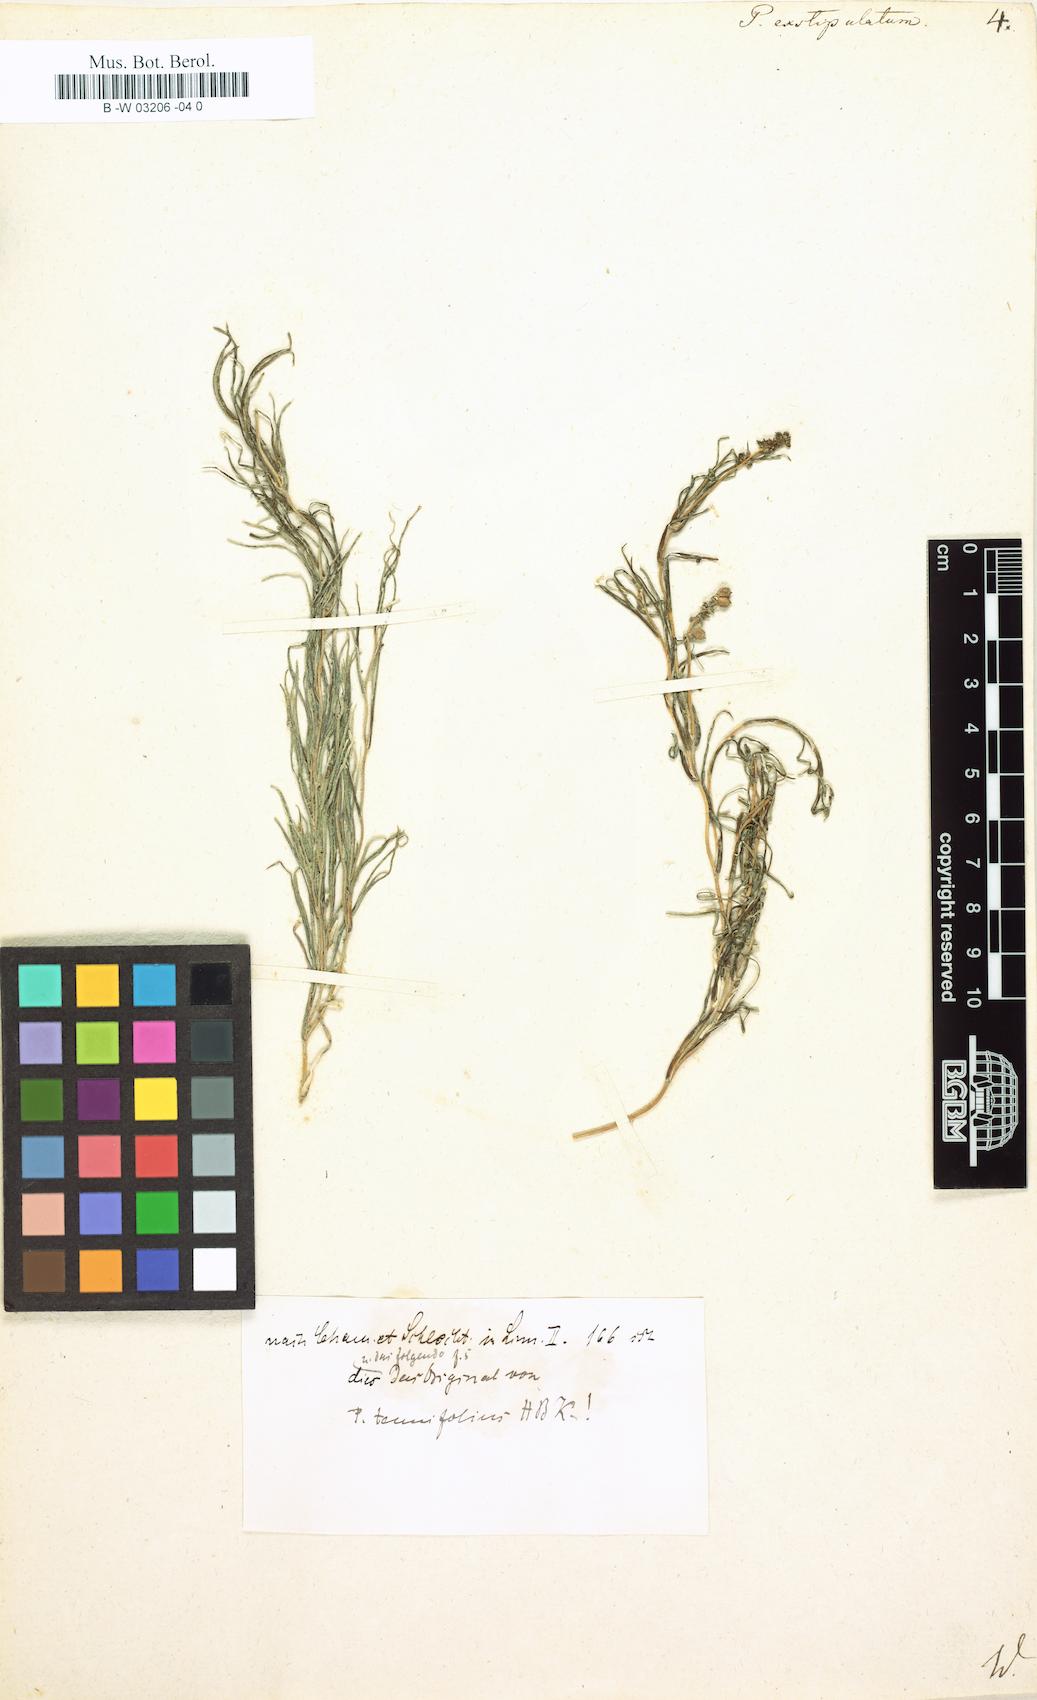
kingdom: Plantae
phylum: Tracheophyta
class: Liliopsida
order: Alismatales
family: Potamogetonaceae
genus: Potamogeton
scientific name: Potamogeton exstipulatus
